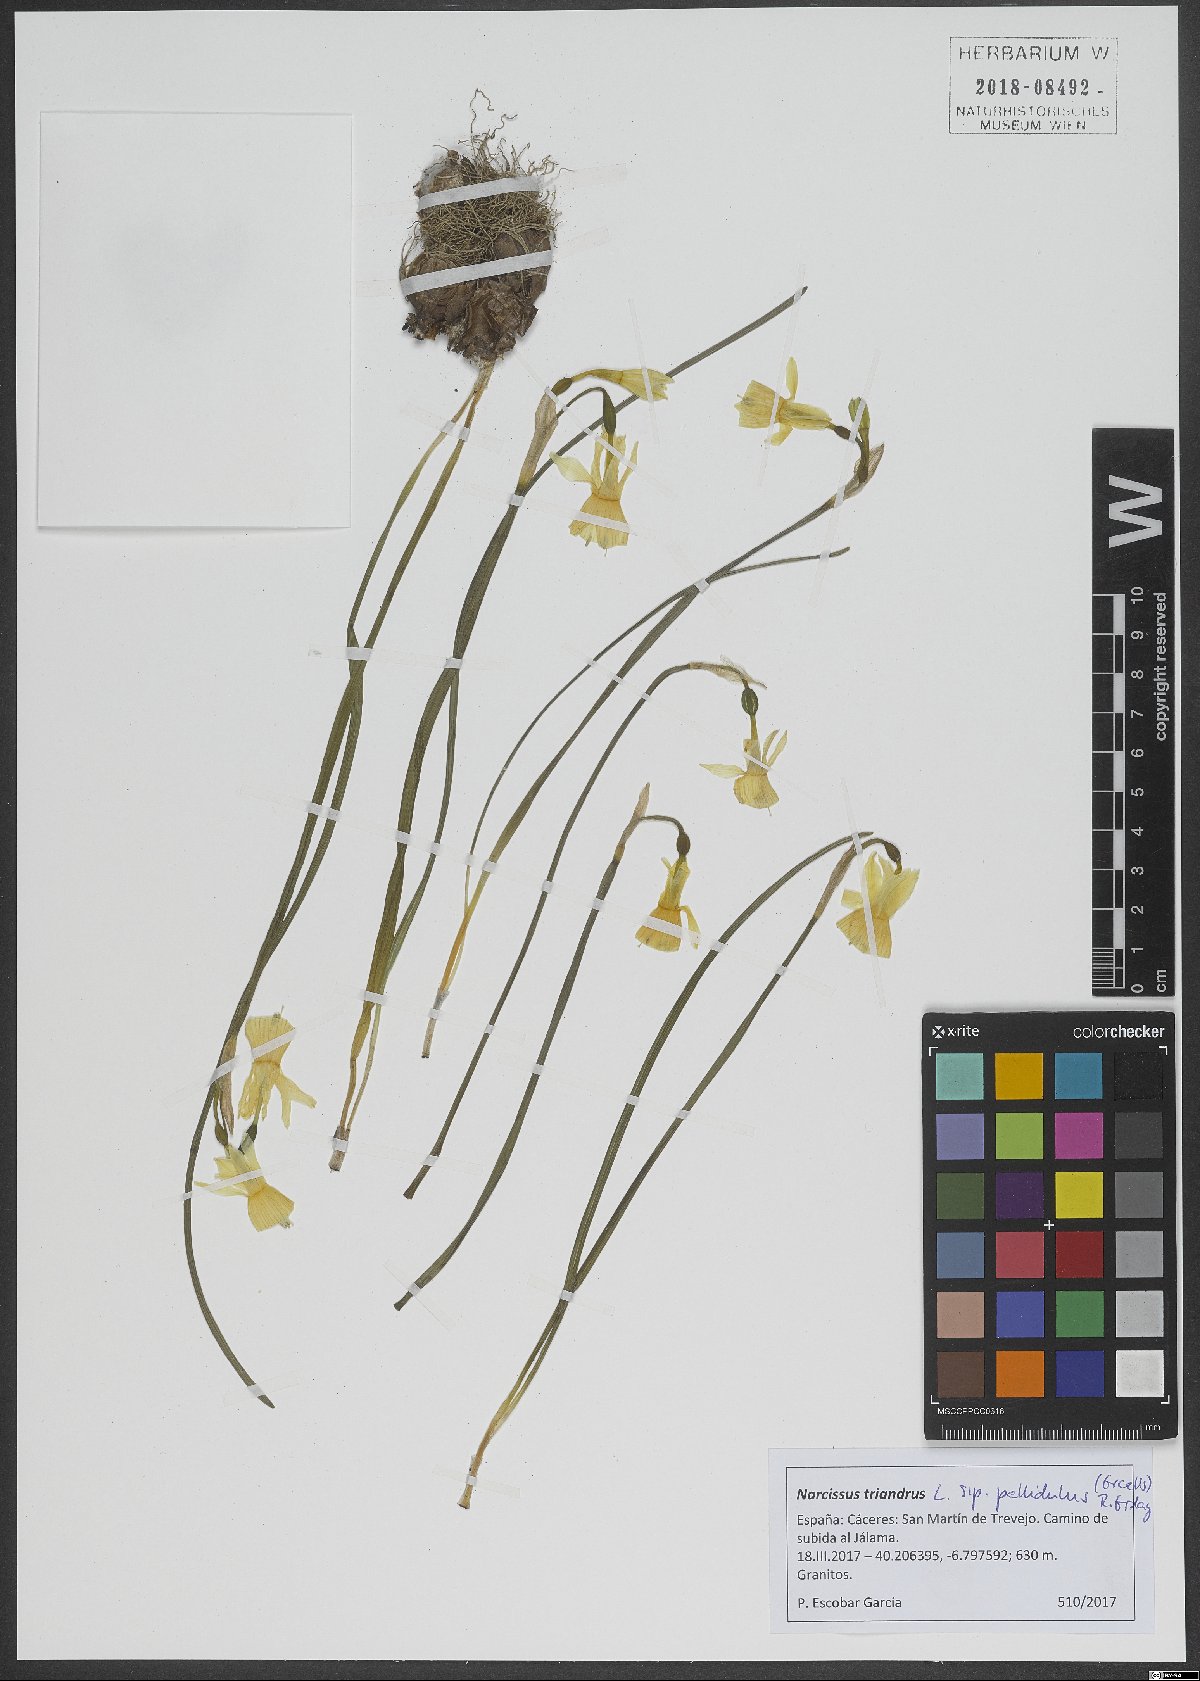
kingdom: Plantae
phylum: Tracheophyta
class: Liliopsida
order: Asparagales
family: Amaryllidaceae
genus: Narcissus
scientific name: Narcissus triandrus
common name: Angel's-tears
